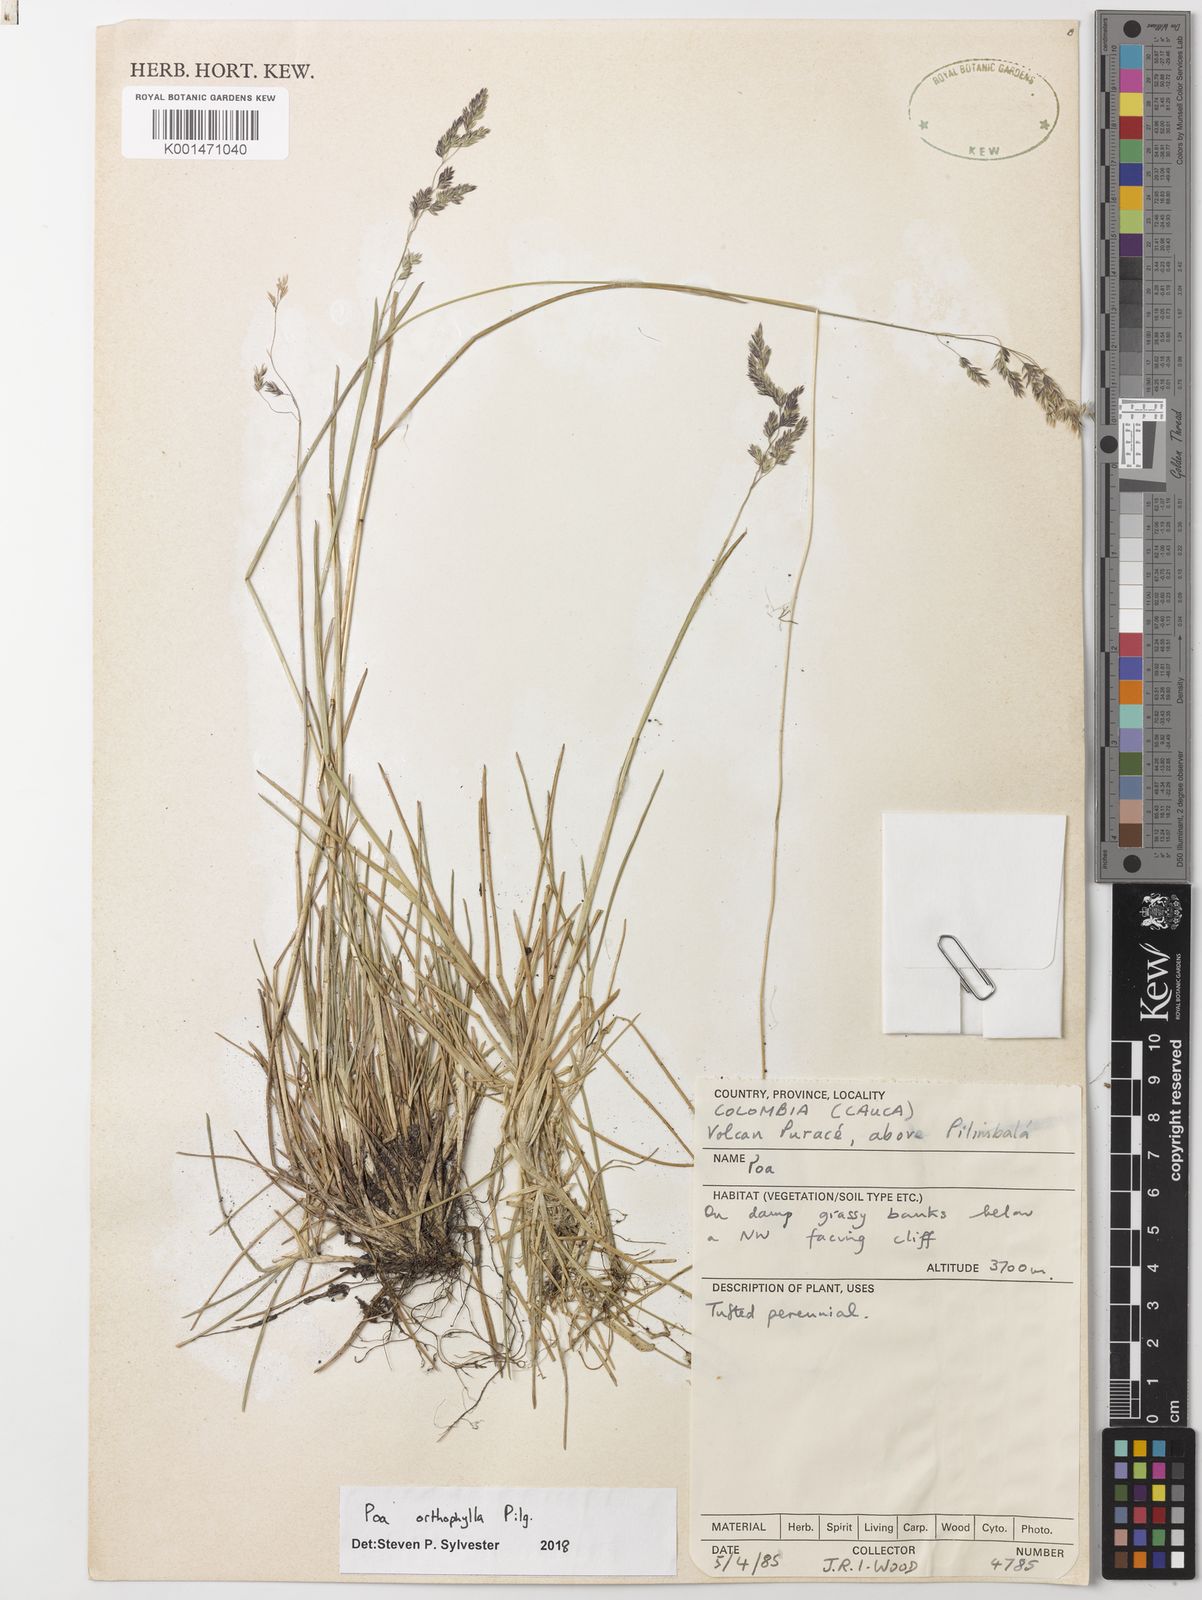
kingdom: Plantae
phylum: Tracheophyta
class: Liliopsida
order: Poales
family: Poaceae
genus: Poa
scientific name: Poa cucullata
